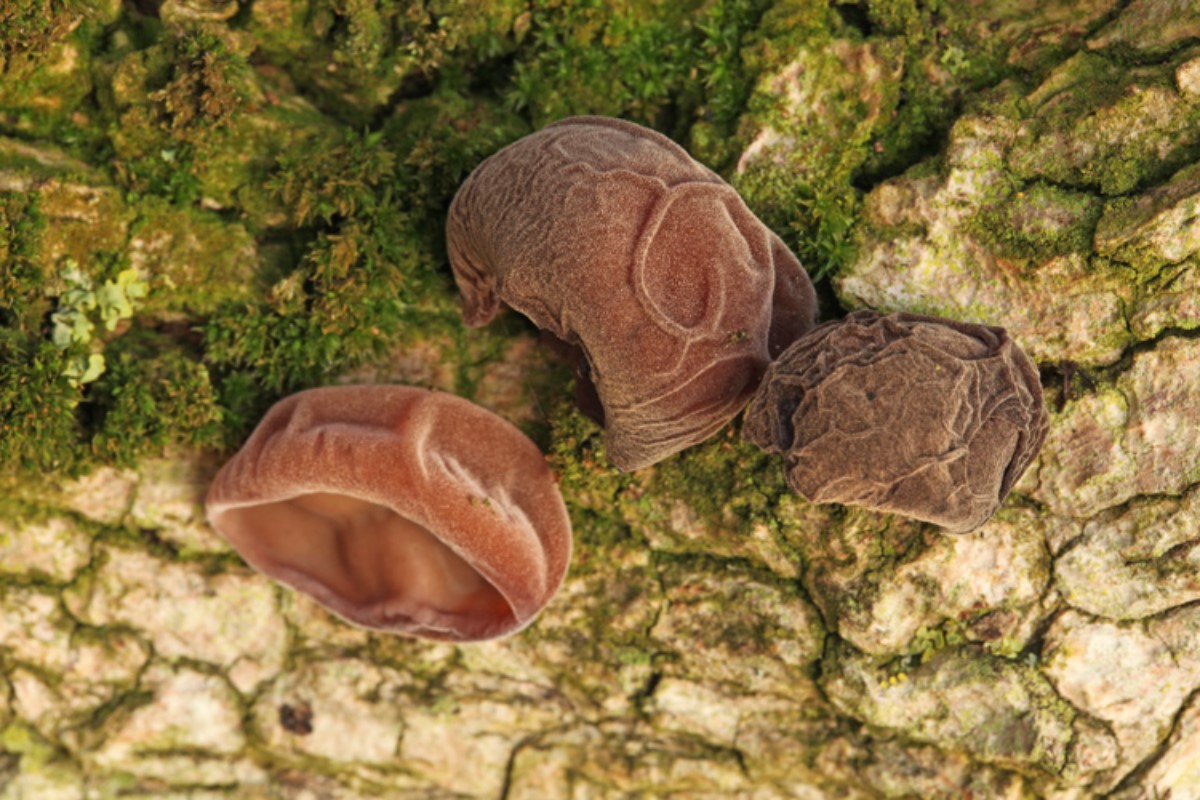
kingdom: Fungi
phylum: Basidiomycota
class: Agaricomycetes
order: Auriculariales
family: Auriculariaceae
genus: Auricularia
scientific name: Auricularia auricula-judae
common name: almindelig judasøre
